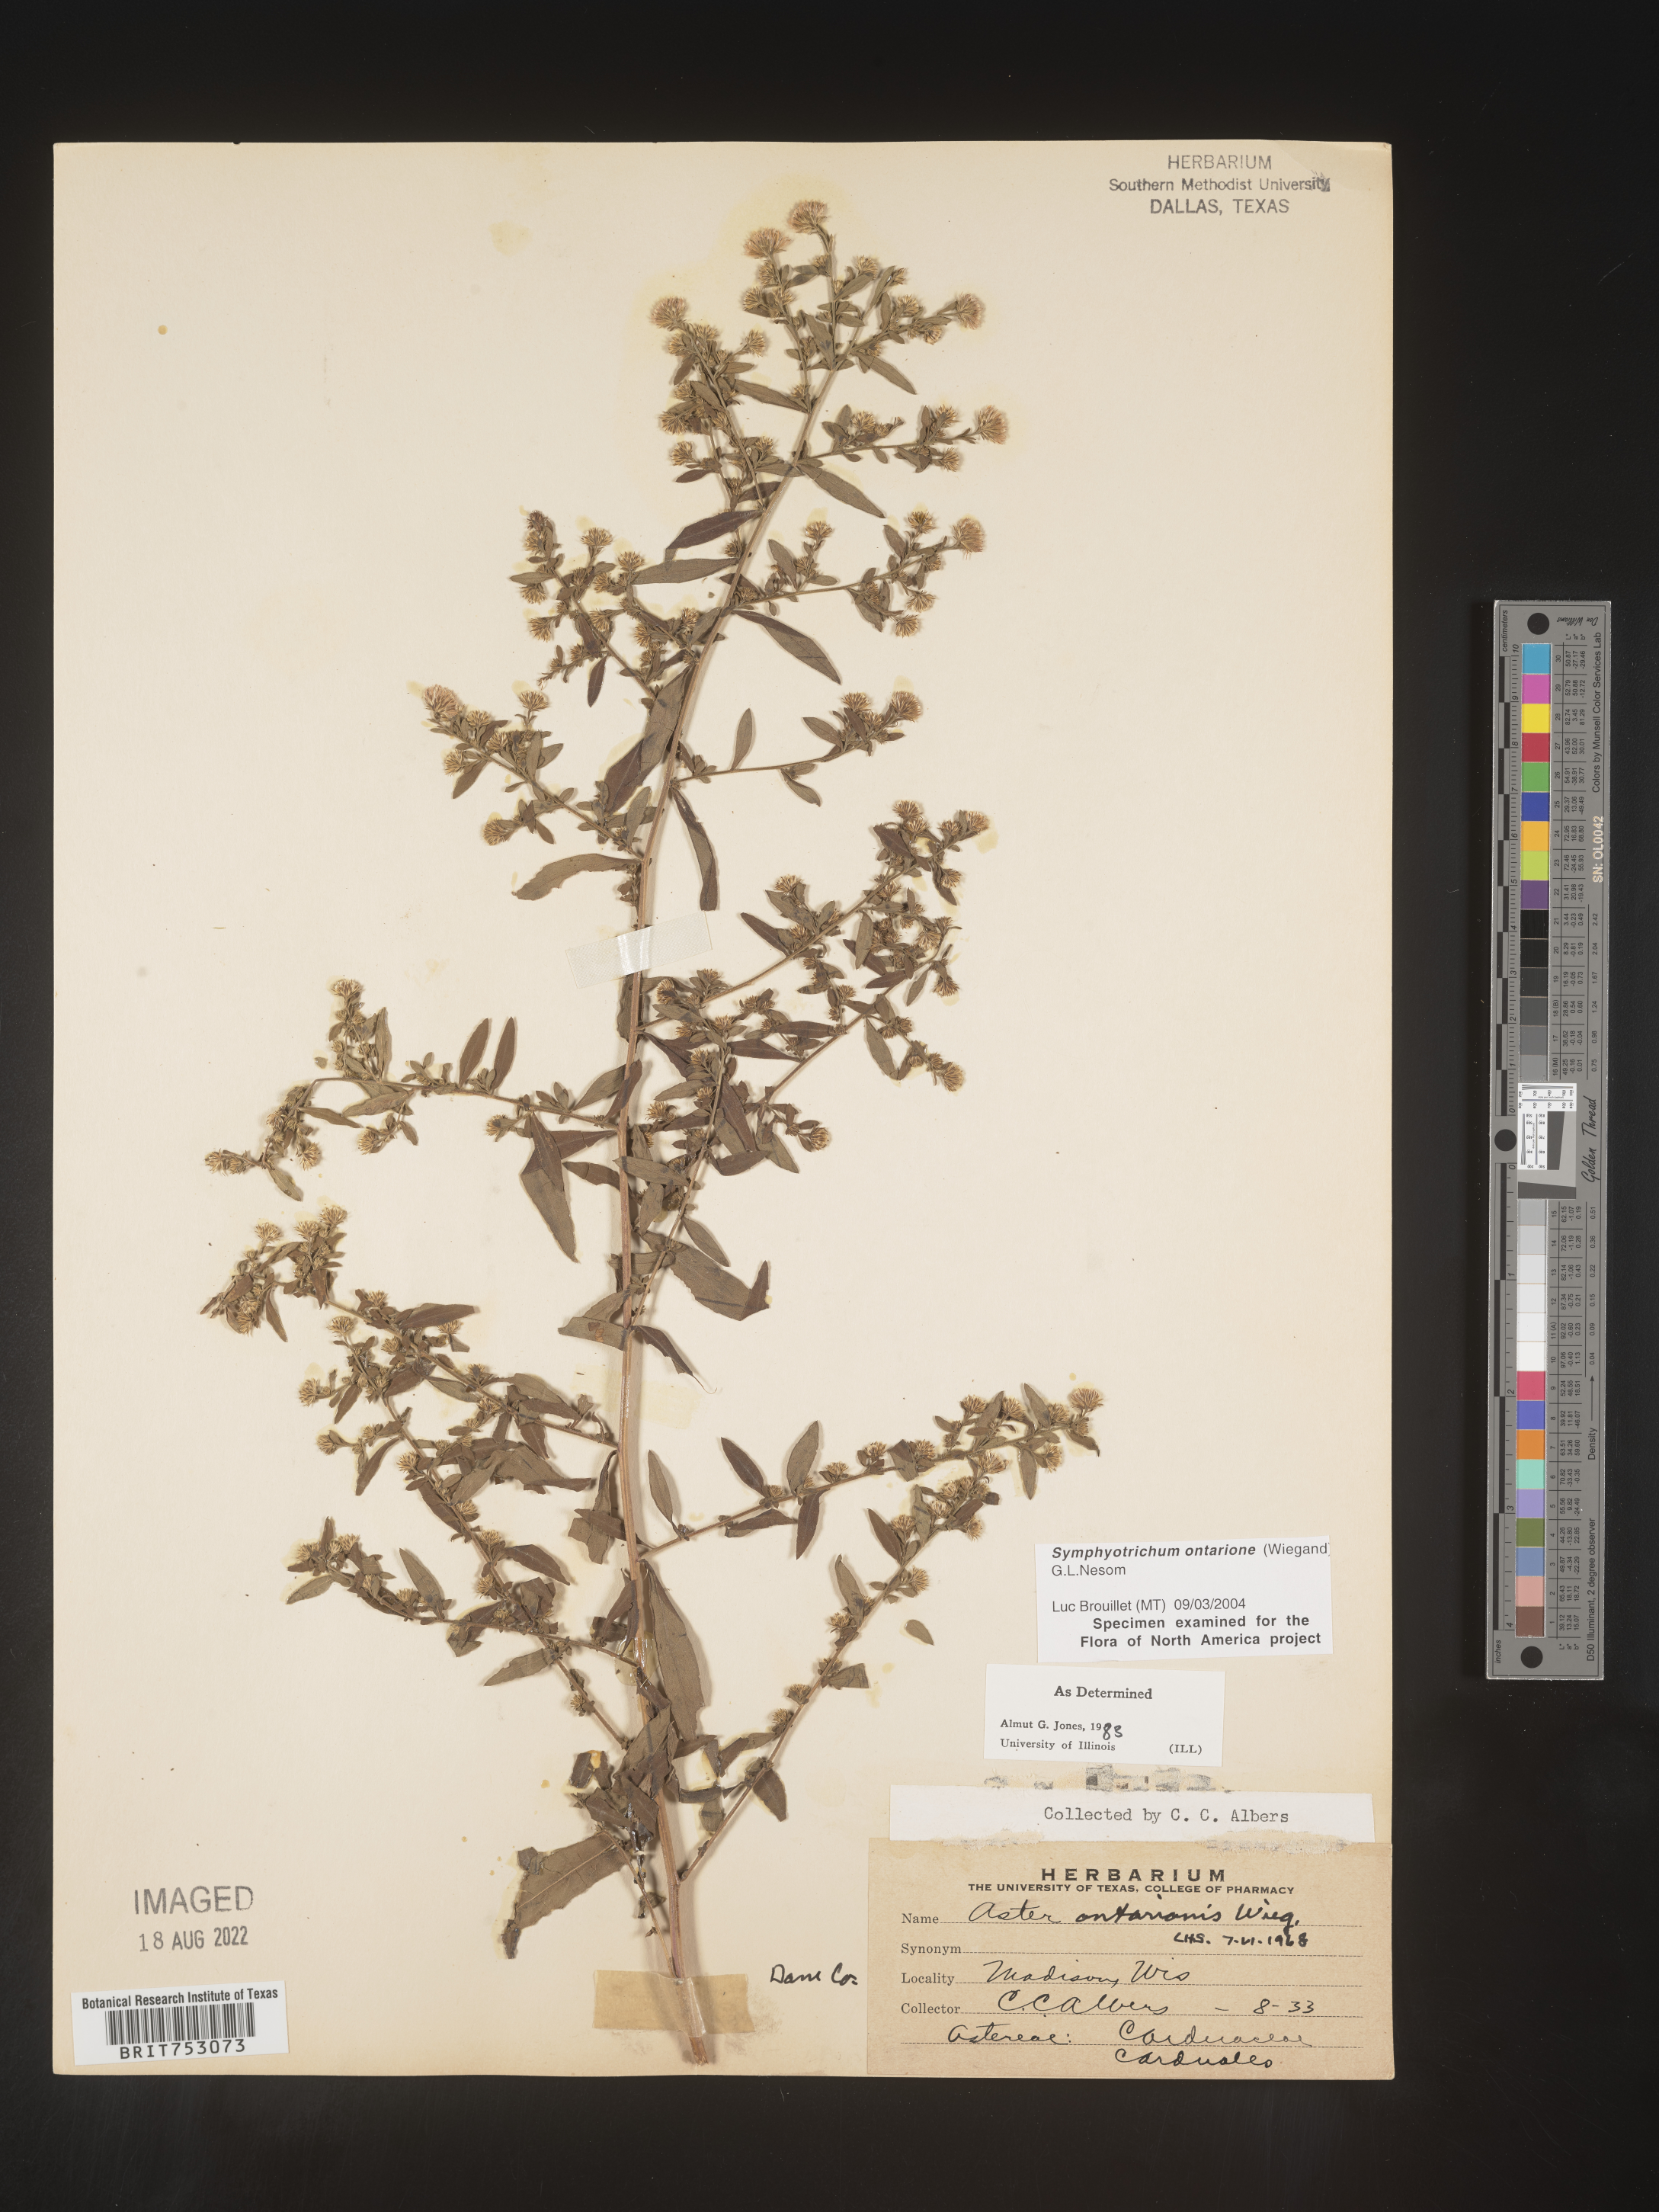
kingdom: Plantae
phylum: Tracheophyta
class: Magnoliopsida
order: Asterales
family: Asteraceae
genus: Symphyotrichum
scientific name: Symphyotrichum ontarionis
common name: Bottomland aster
